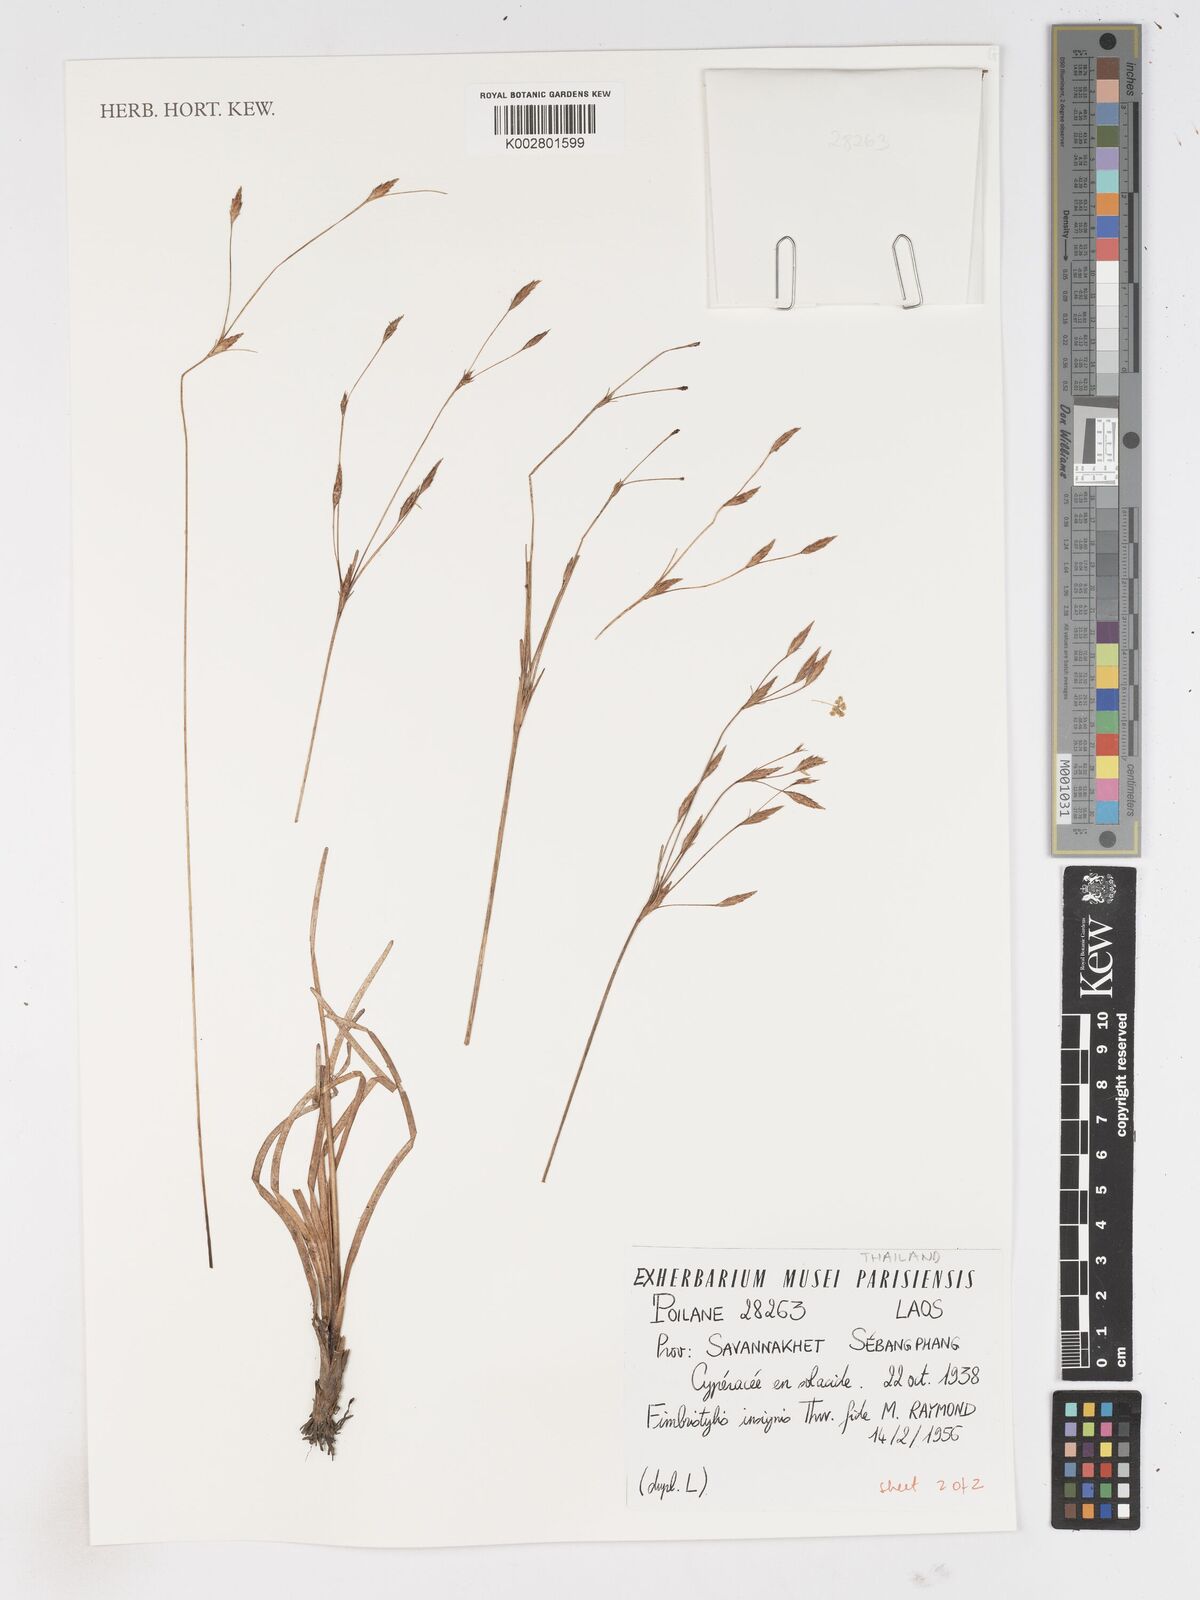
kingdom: Plantae
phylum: Tracheophyta
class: Liliopsida
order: Poales
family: Cyperaceae
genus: Fimbristylis
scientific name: Fimbristylis insignis
